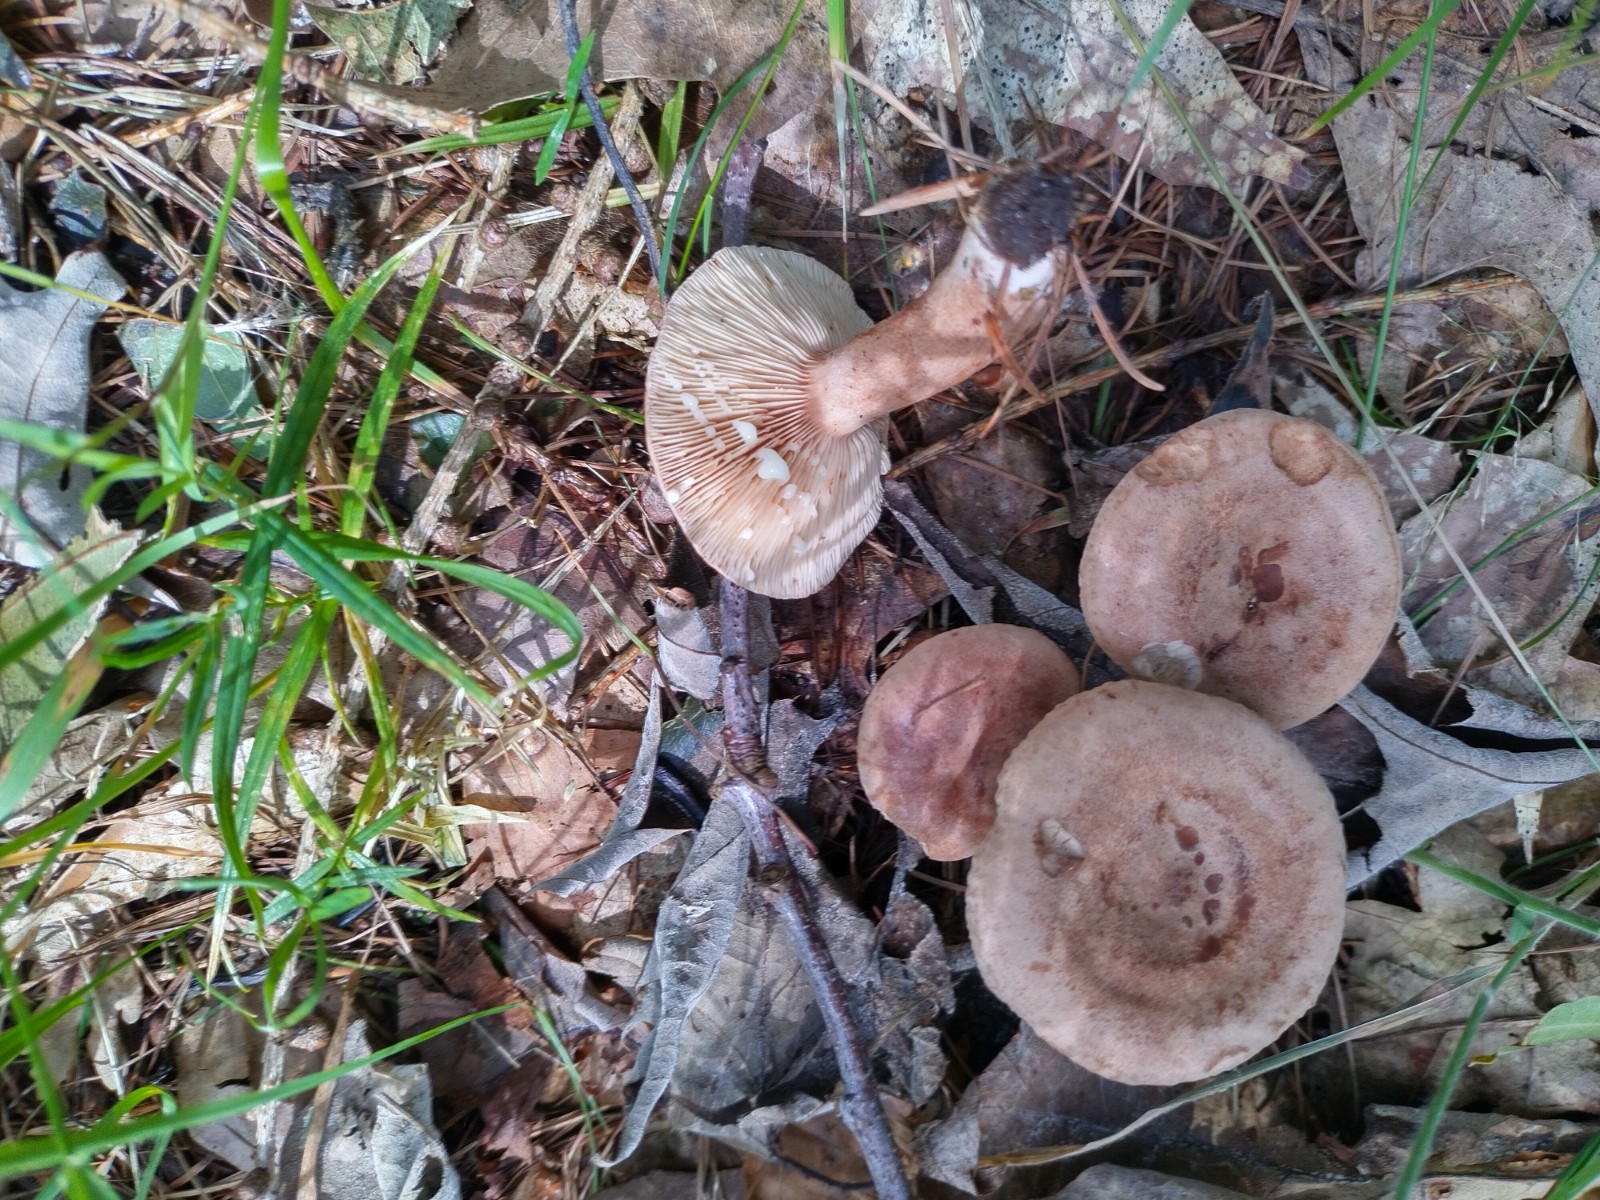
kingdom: Fungi
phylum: Basidiomycota
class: Agaricomycetes
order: Russulales
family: Russulaceae
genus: Lactarius
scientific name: Lactarius quietus
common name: ege-mælkehat
